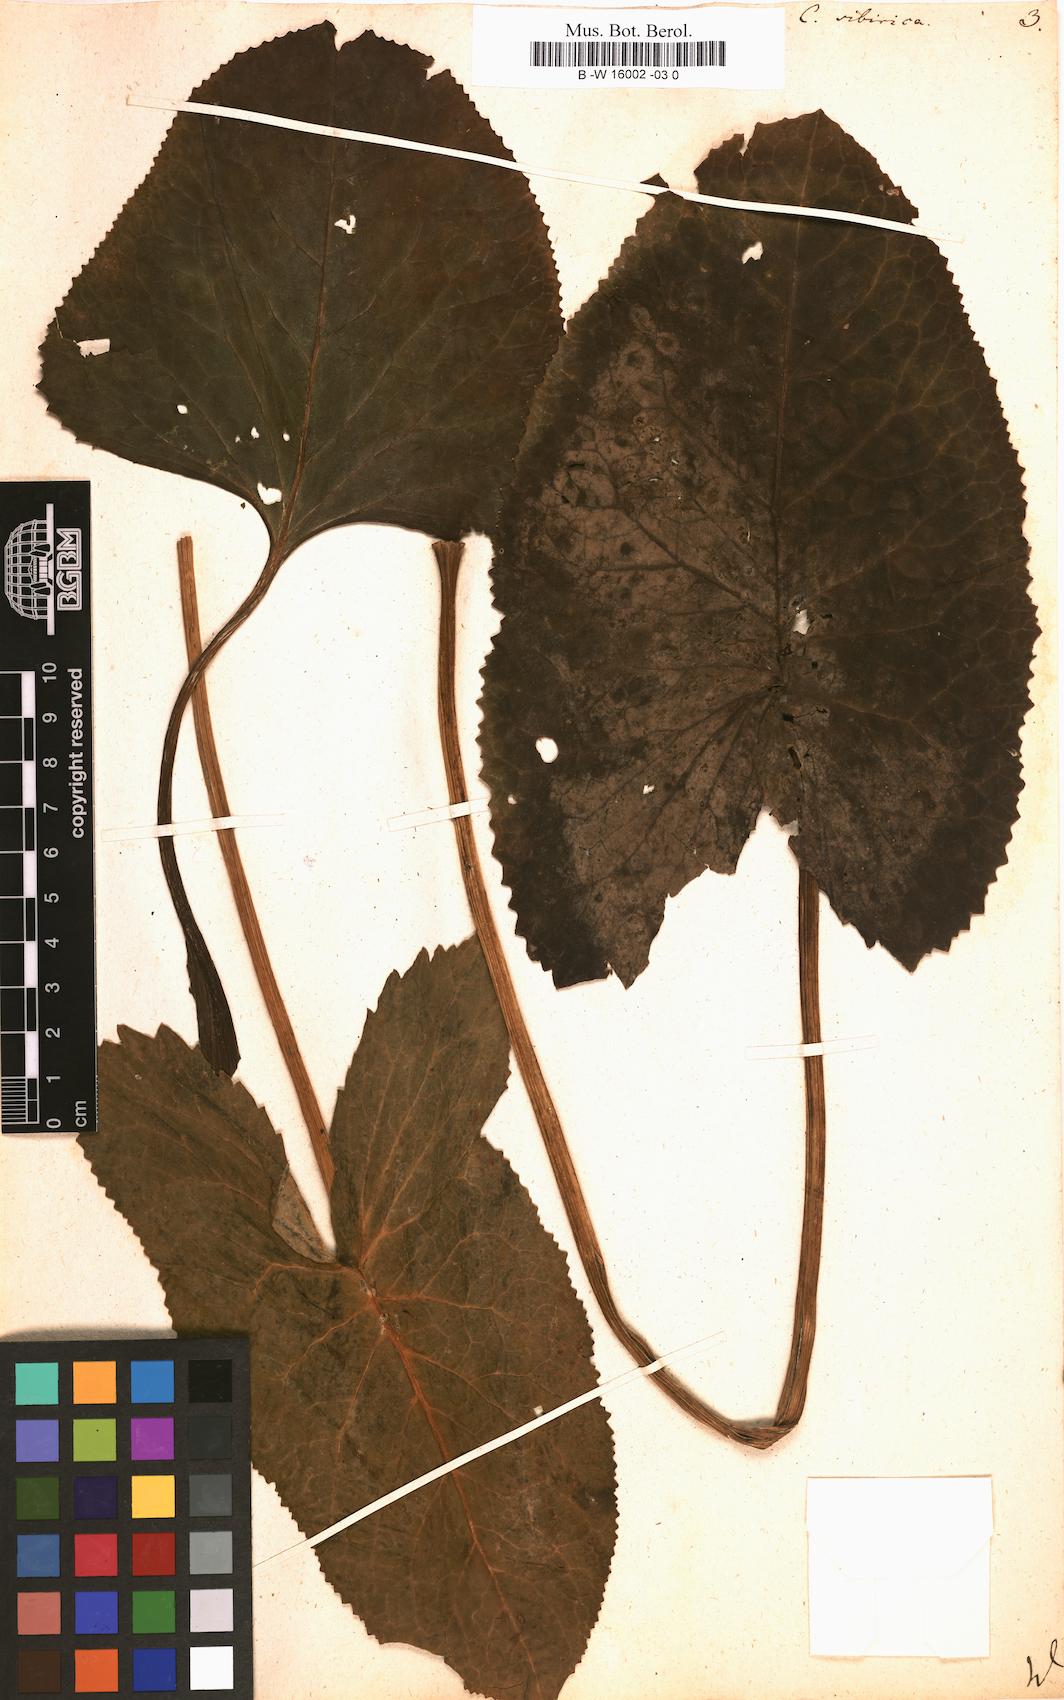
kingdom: Plantae
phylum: Tracheophyta
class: Magnoliopsida
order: Asterales
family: Asteraceae
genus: Ligularia
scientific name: Ligularia sibirica
